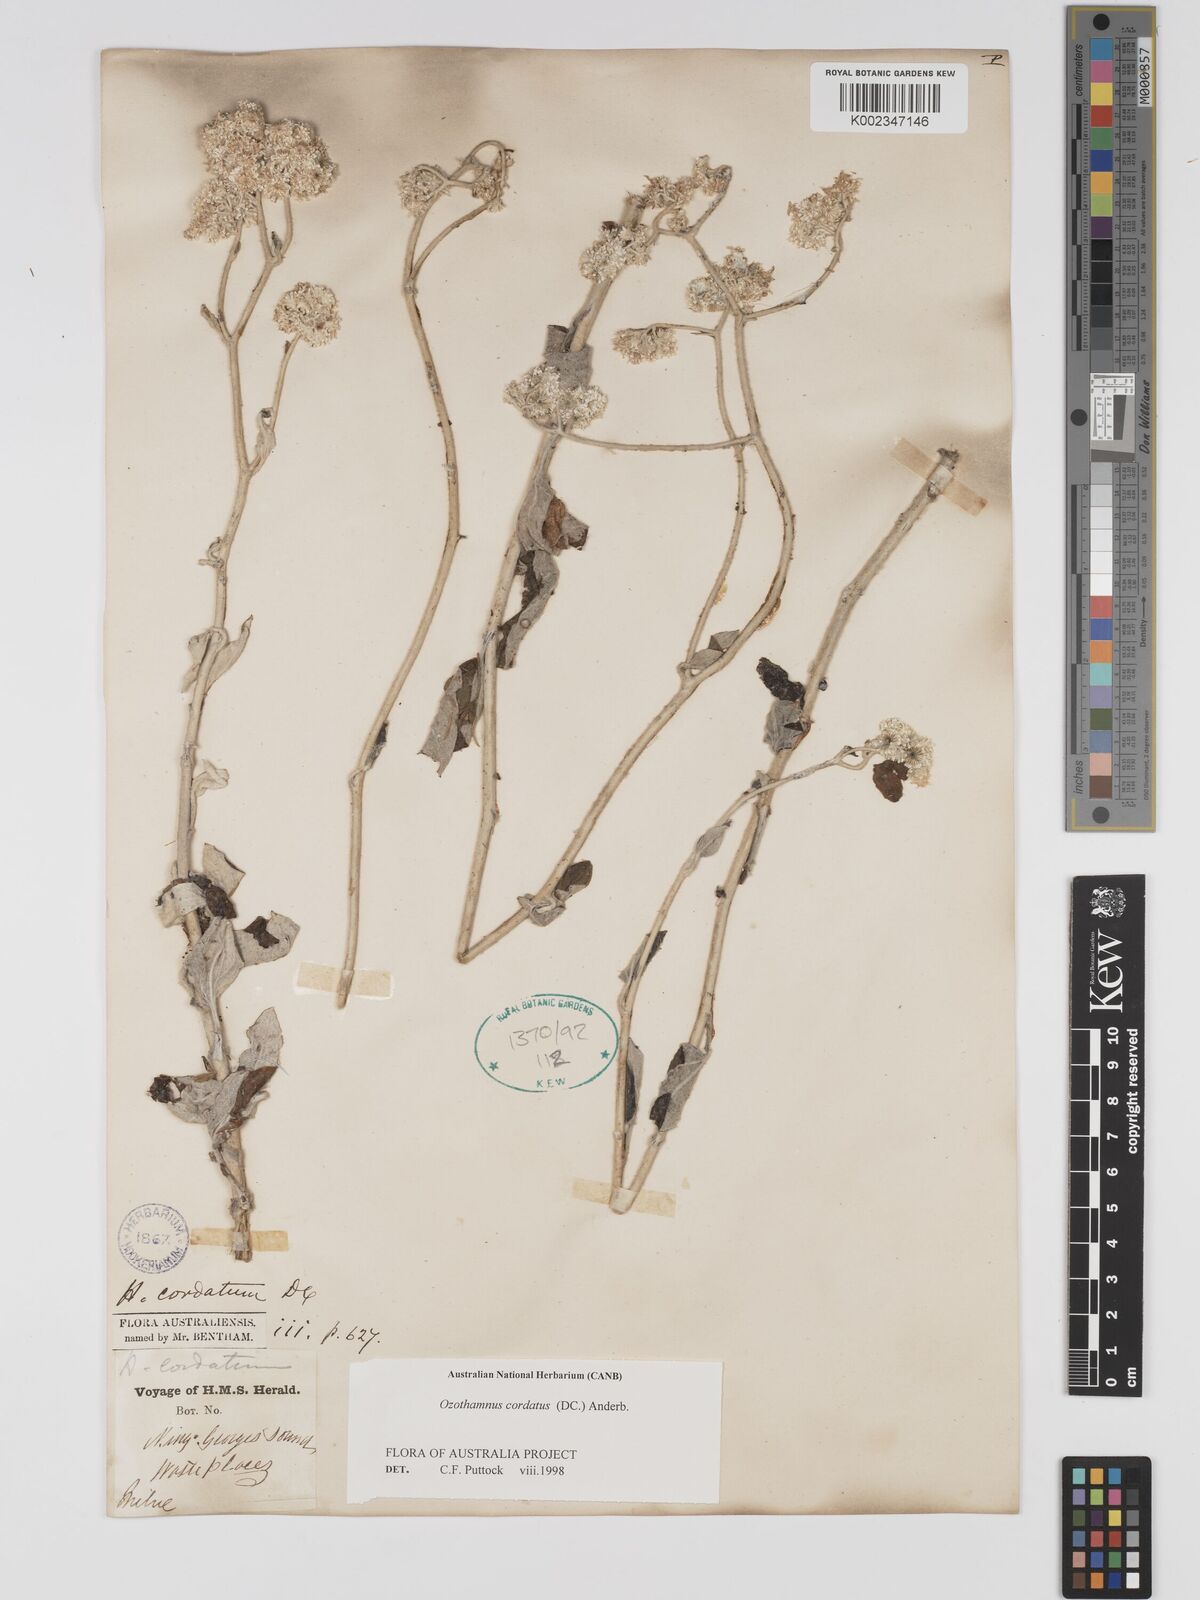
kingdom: Plantae
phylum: Tracheophyta
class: Magnoliopsida
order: Asterales
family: Asteraceae
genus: Ozothamnus
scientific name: Ozothamnus
